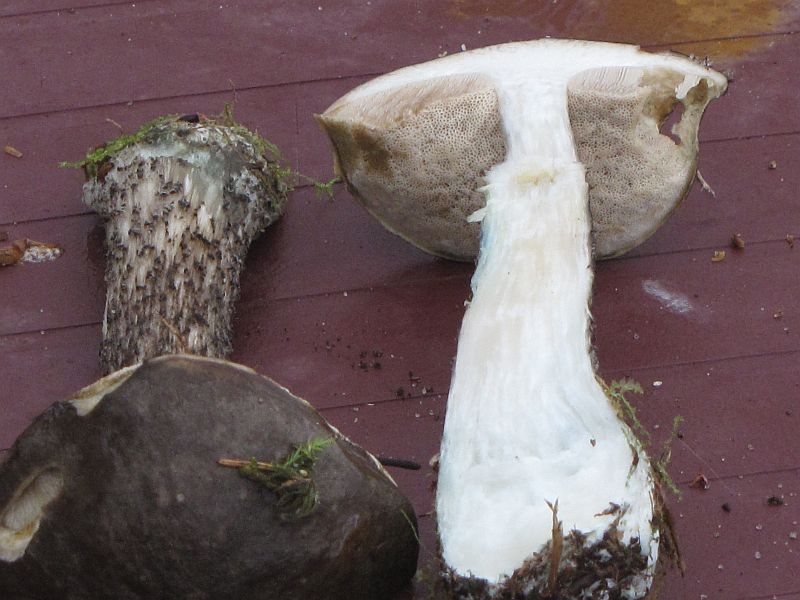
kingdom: Fungi
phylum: Basidiomycota
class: Agaricomycetes
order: Boletales
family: Boletaceae
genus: Leccinum
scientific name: Leccinum variicolor
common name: flammet skælrørhat
